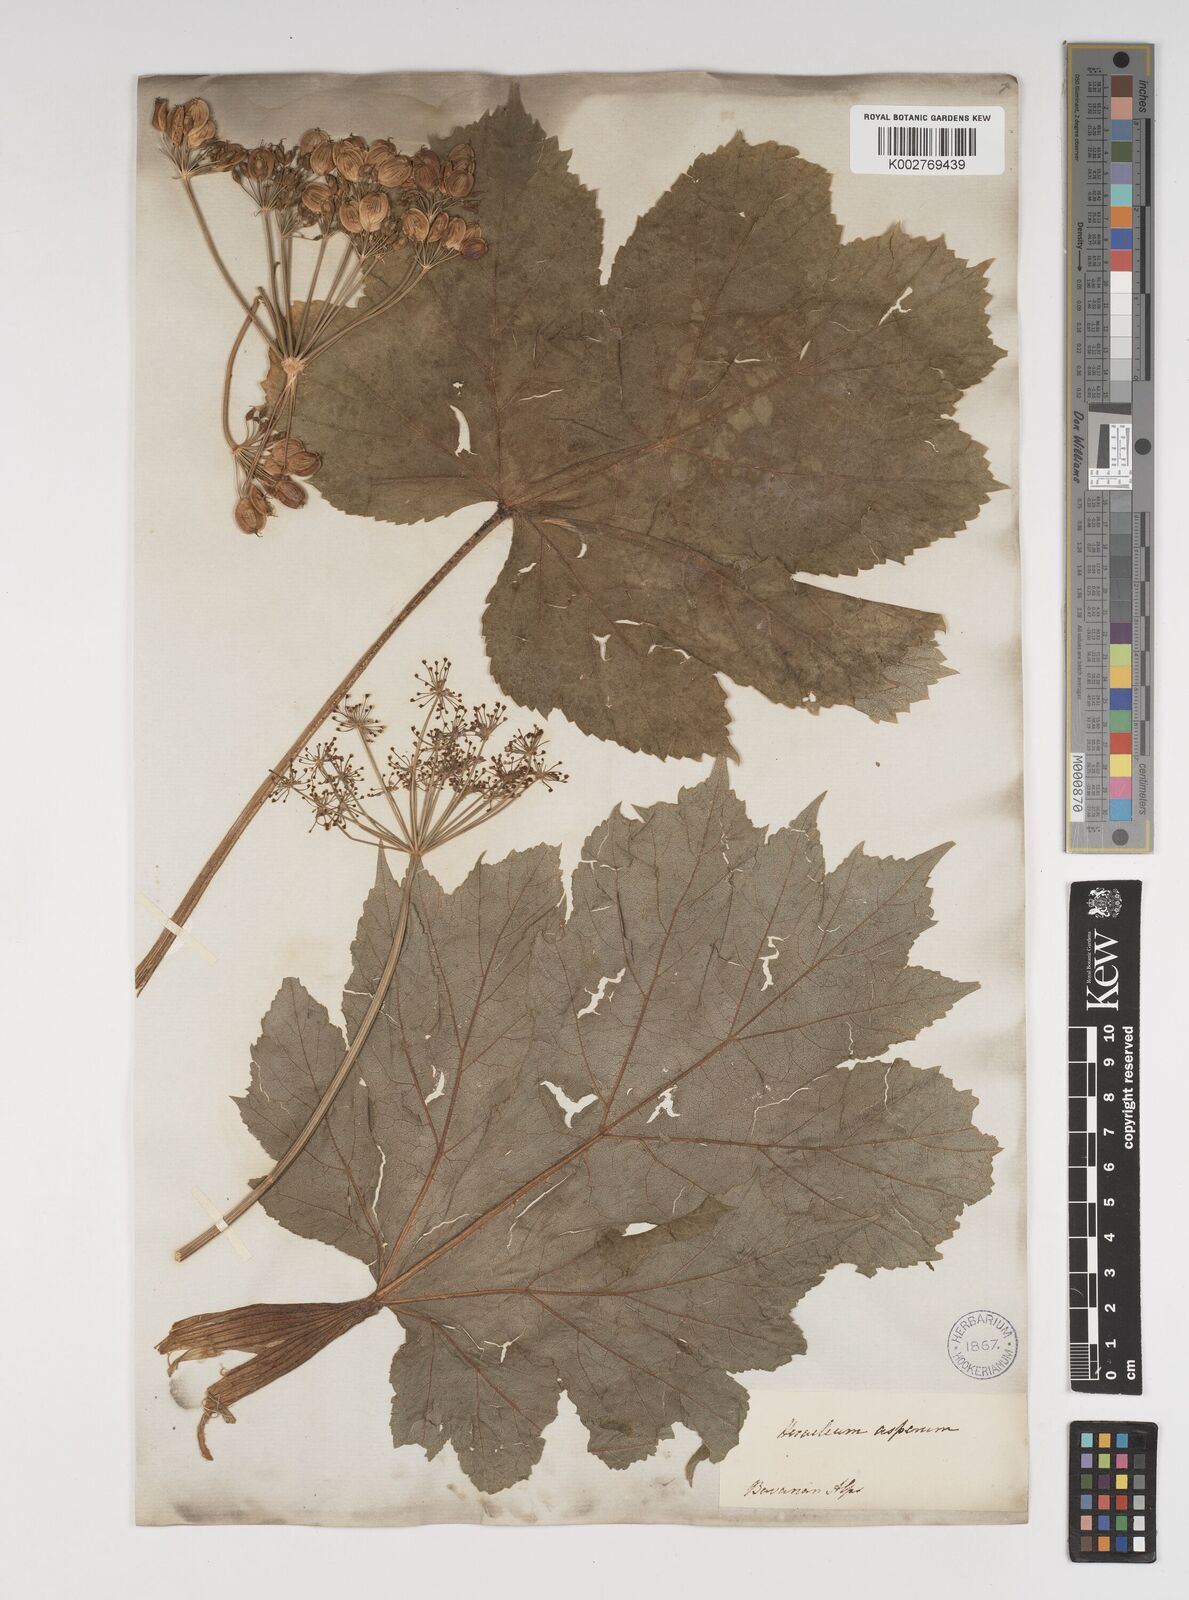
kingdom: Plantae
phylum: Tracheophyta
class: Magnoliopsida
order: Apiales
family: Apiaceae
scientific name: Apiaceae
